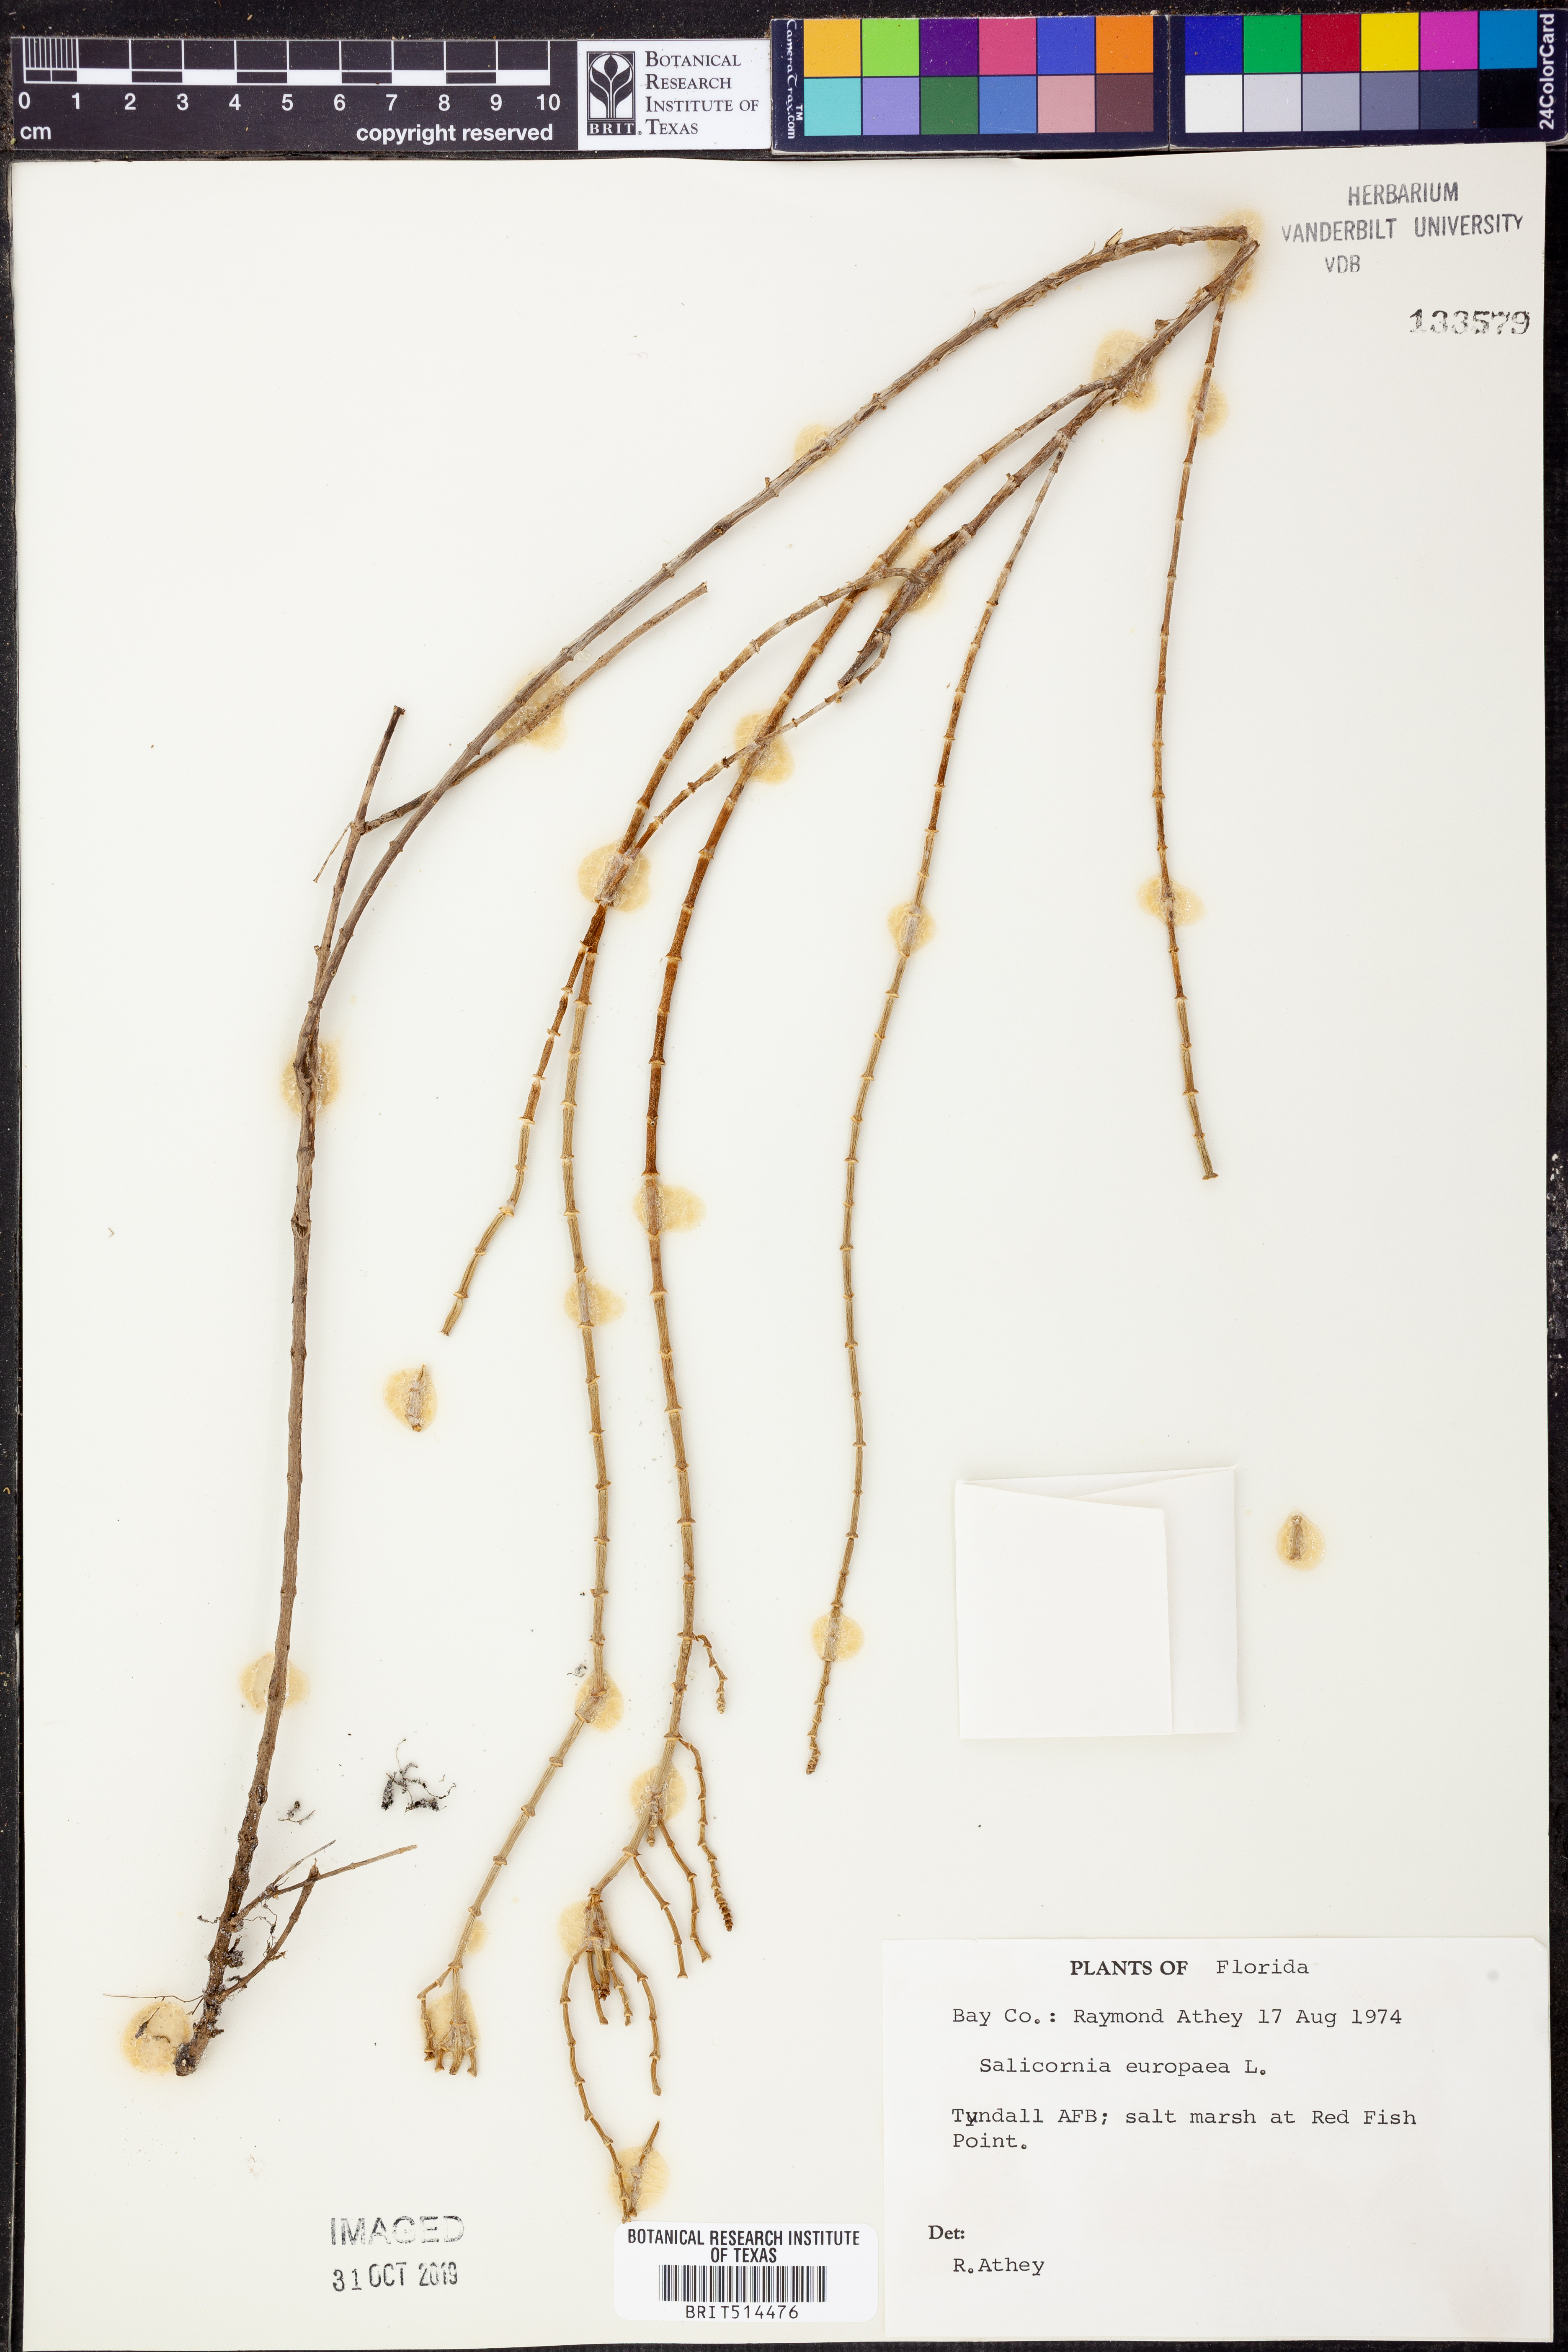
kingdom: Plantae
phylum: Tracheophyta
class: Magnoliopsida
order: Caryophyllales
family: Amaranthaceae
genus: Salicornia
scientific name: Salicornia europaea
